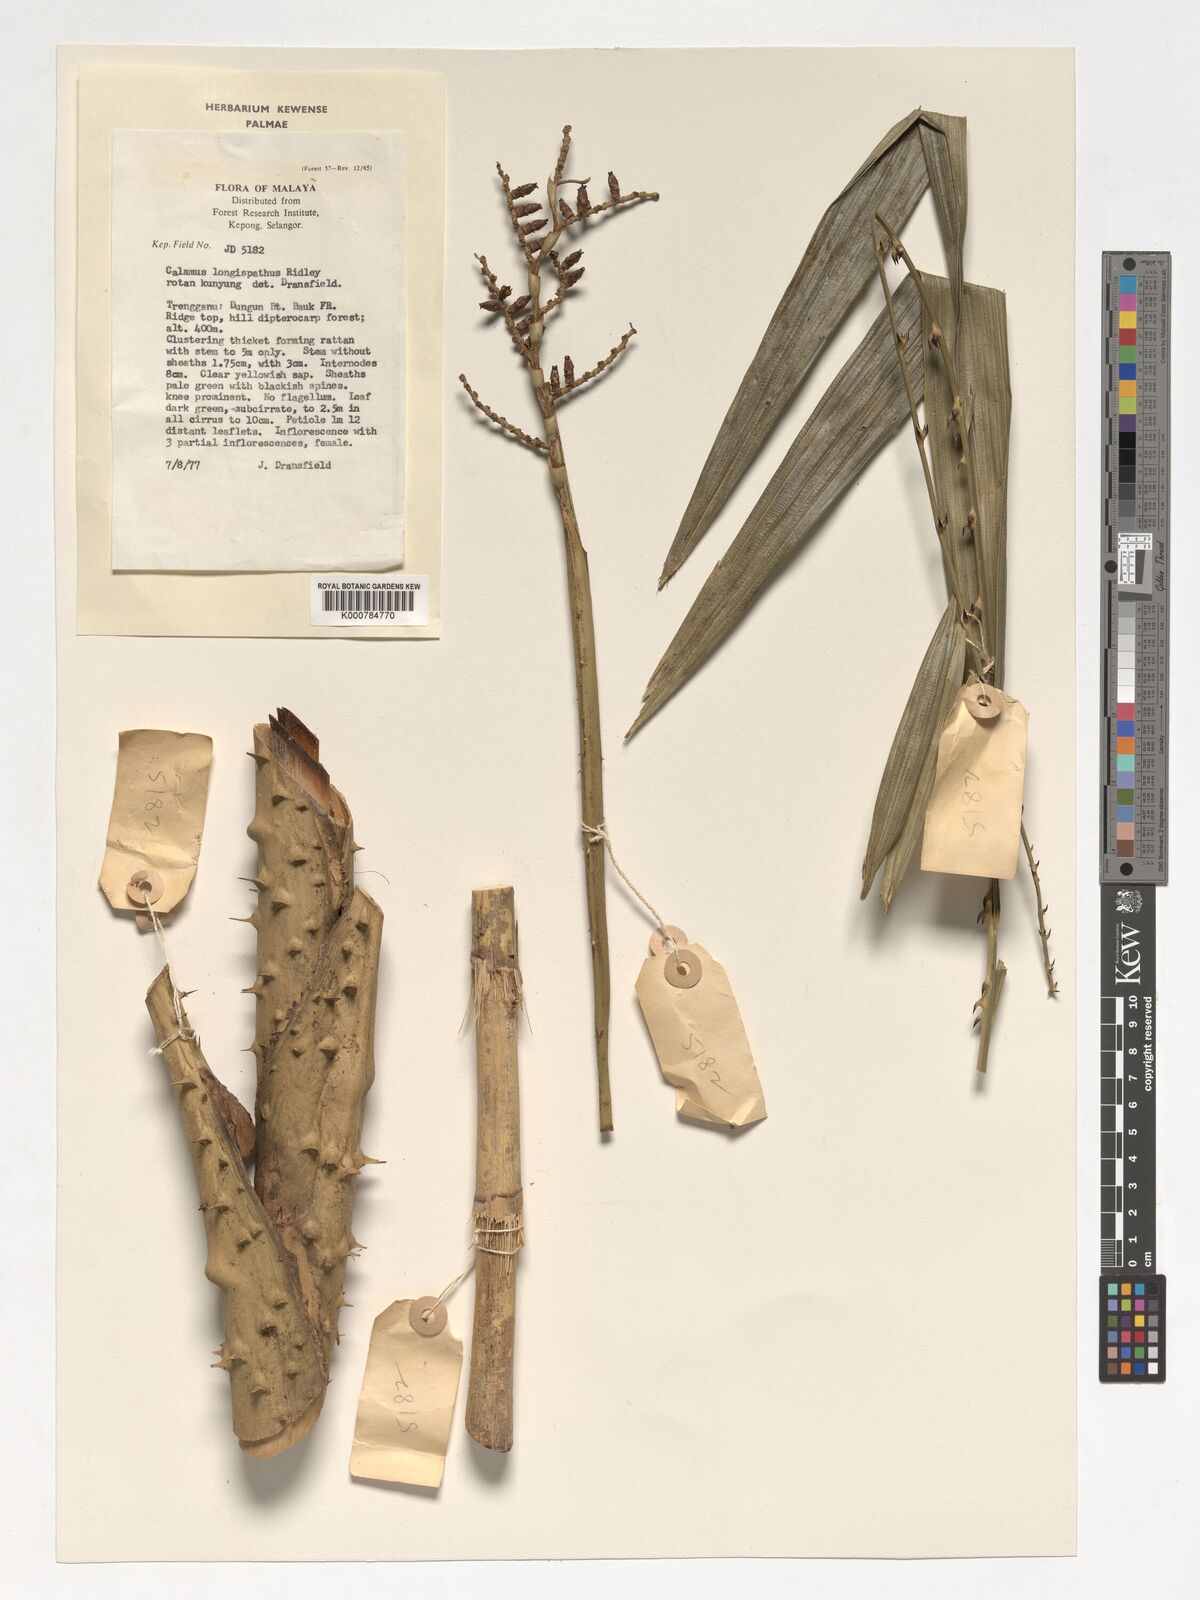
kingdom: Plantae
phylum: Tracheophyta
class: Liliopsida
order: Arecales
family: Arecaceae
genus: Calamus
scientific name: Calamus longispatha
